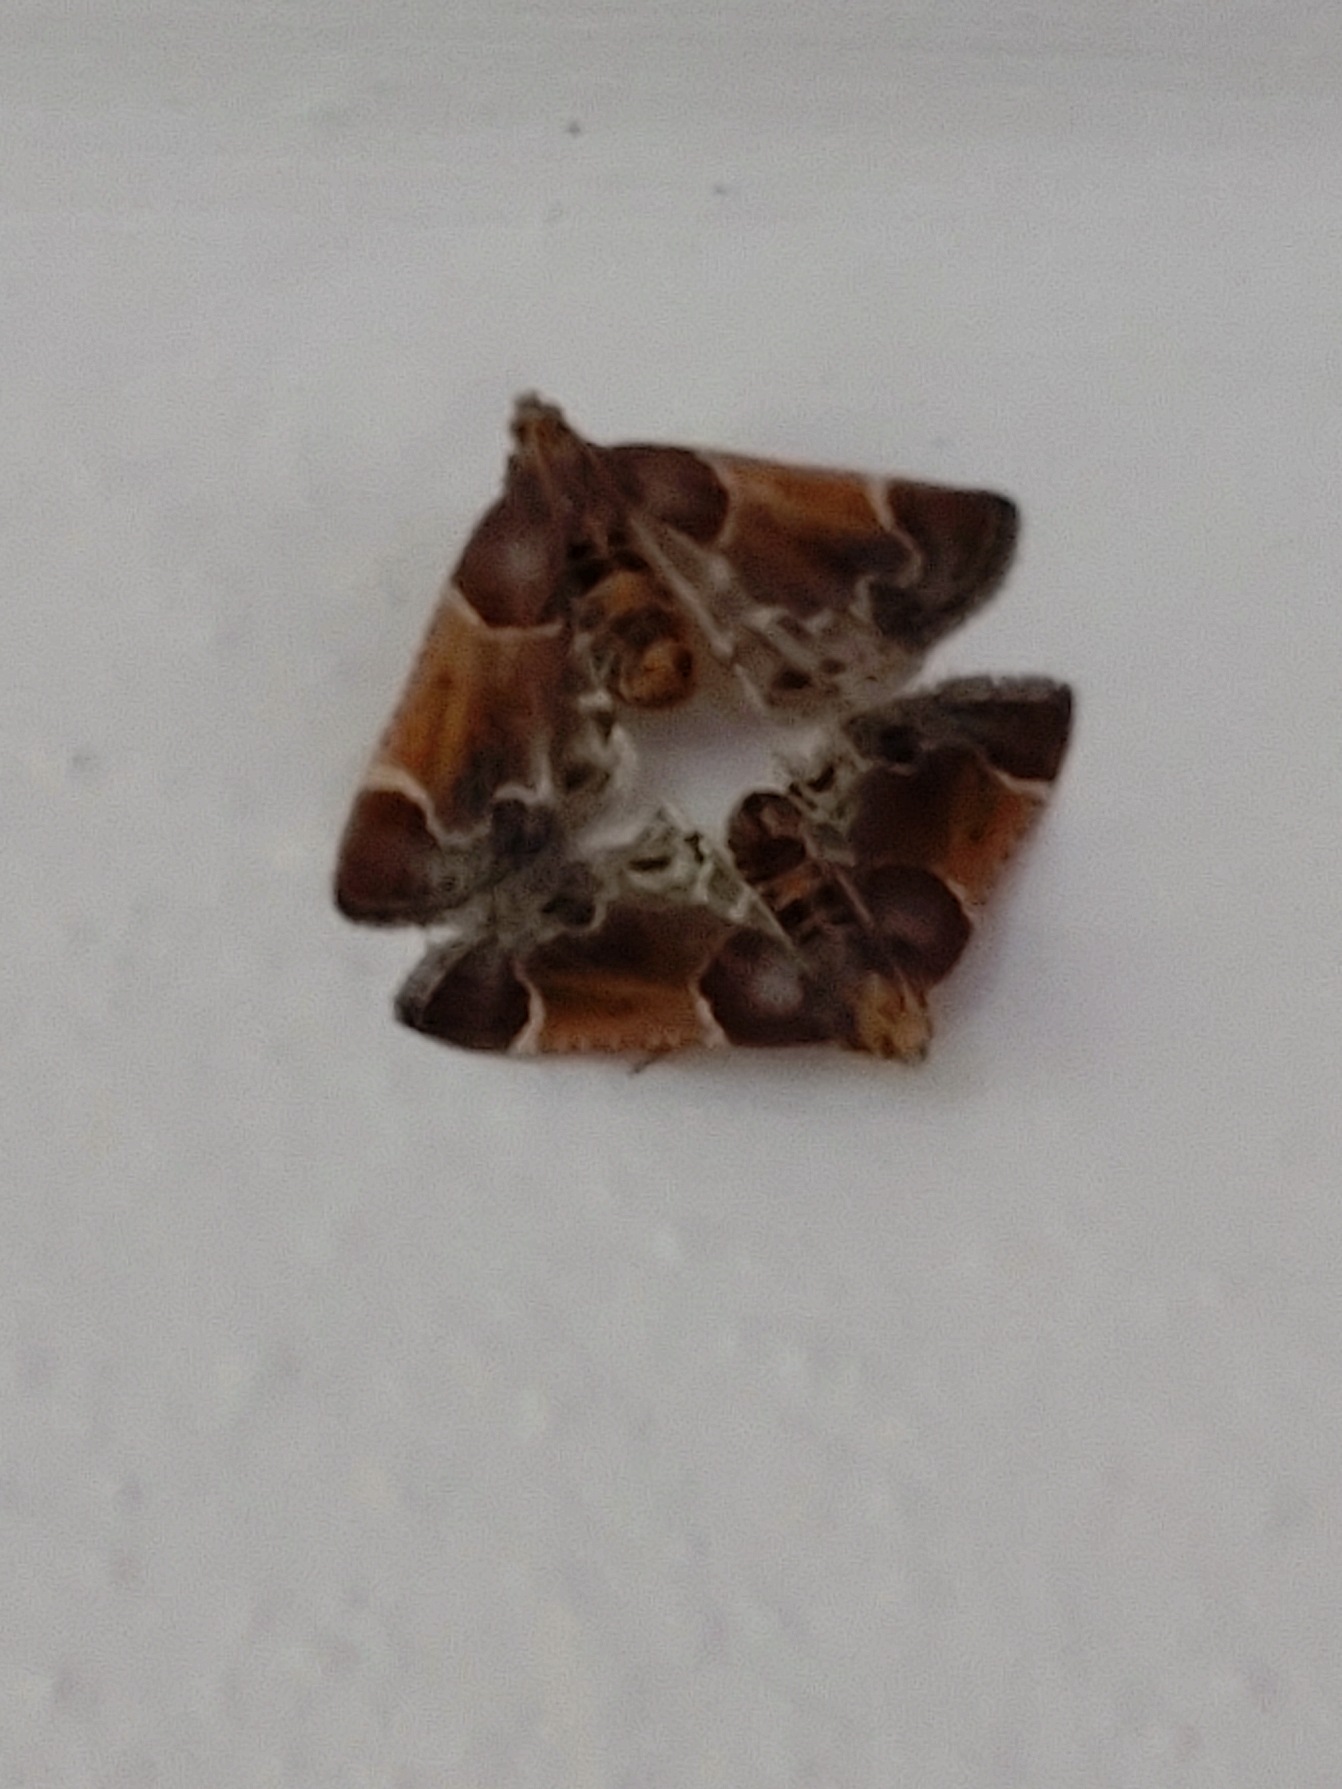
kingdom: Animalia
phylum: Arthropoda
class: Insecta
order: Lepidoptera
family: Pyralidae
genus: Pyralis
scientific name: Pyralis farinalis
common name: Stort melmøl
